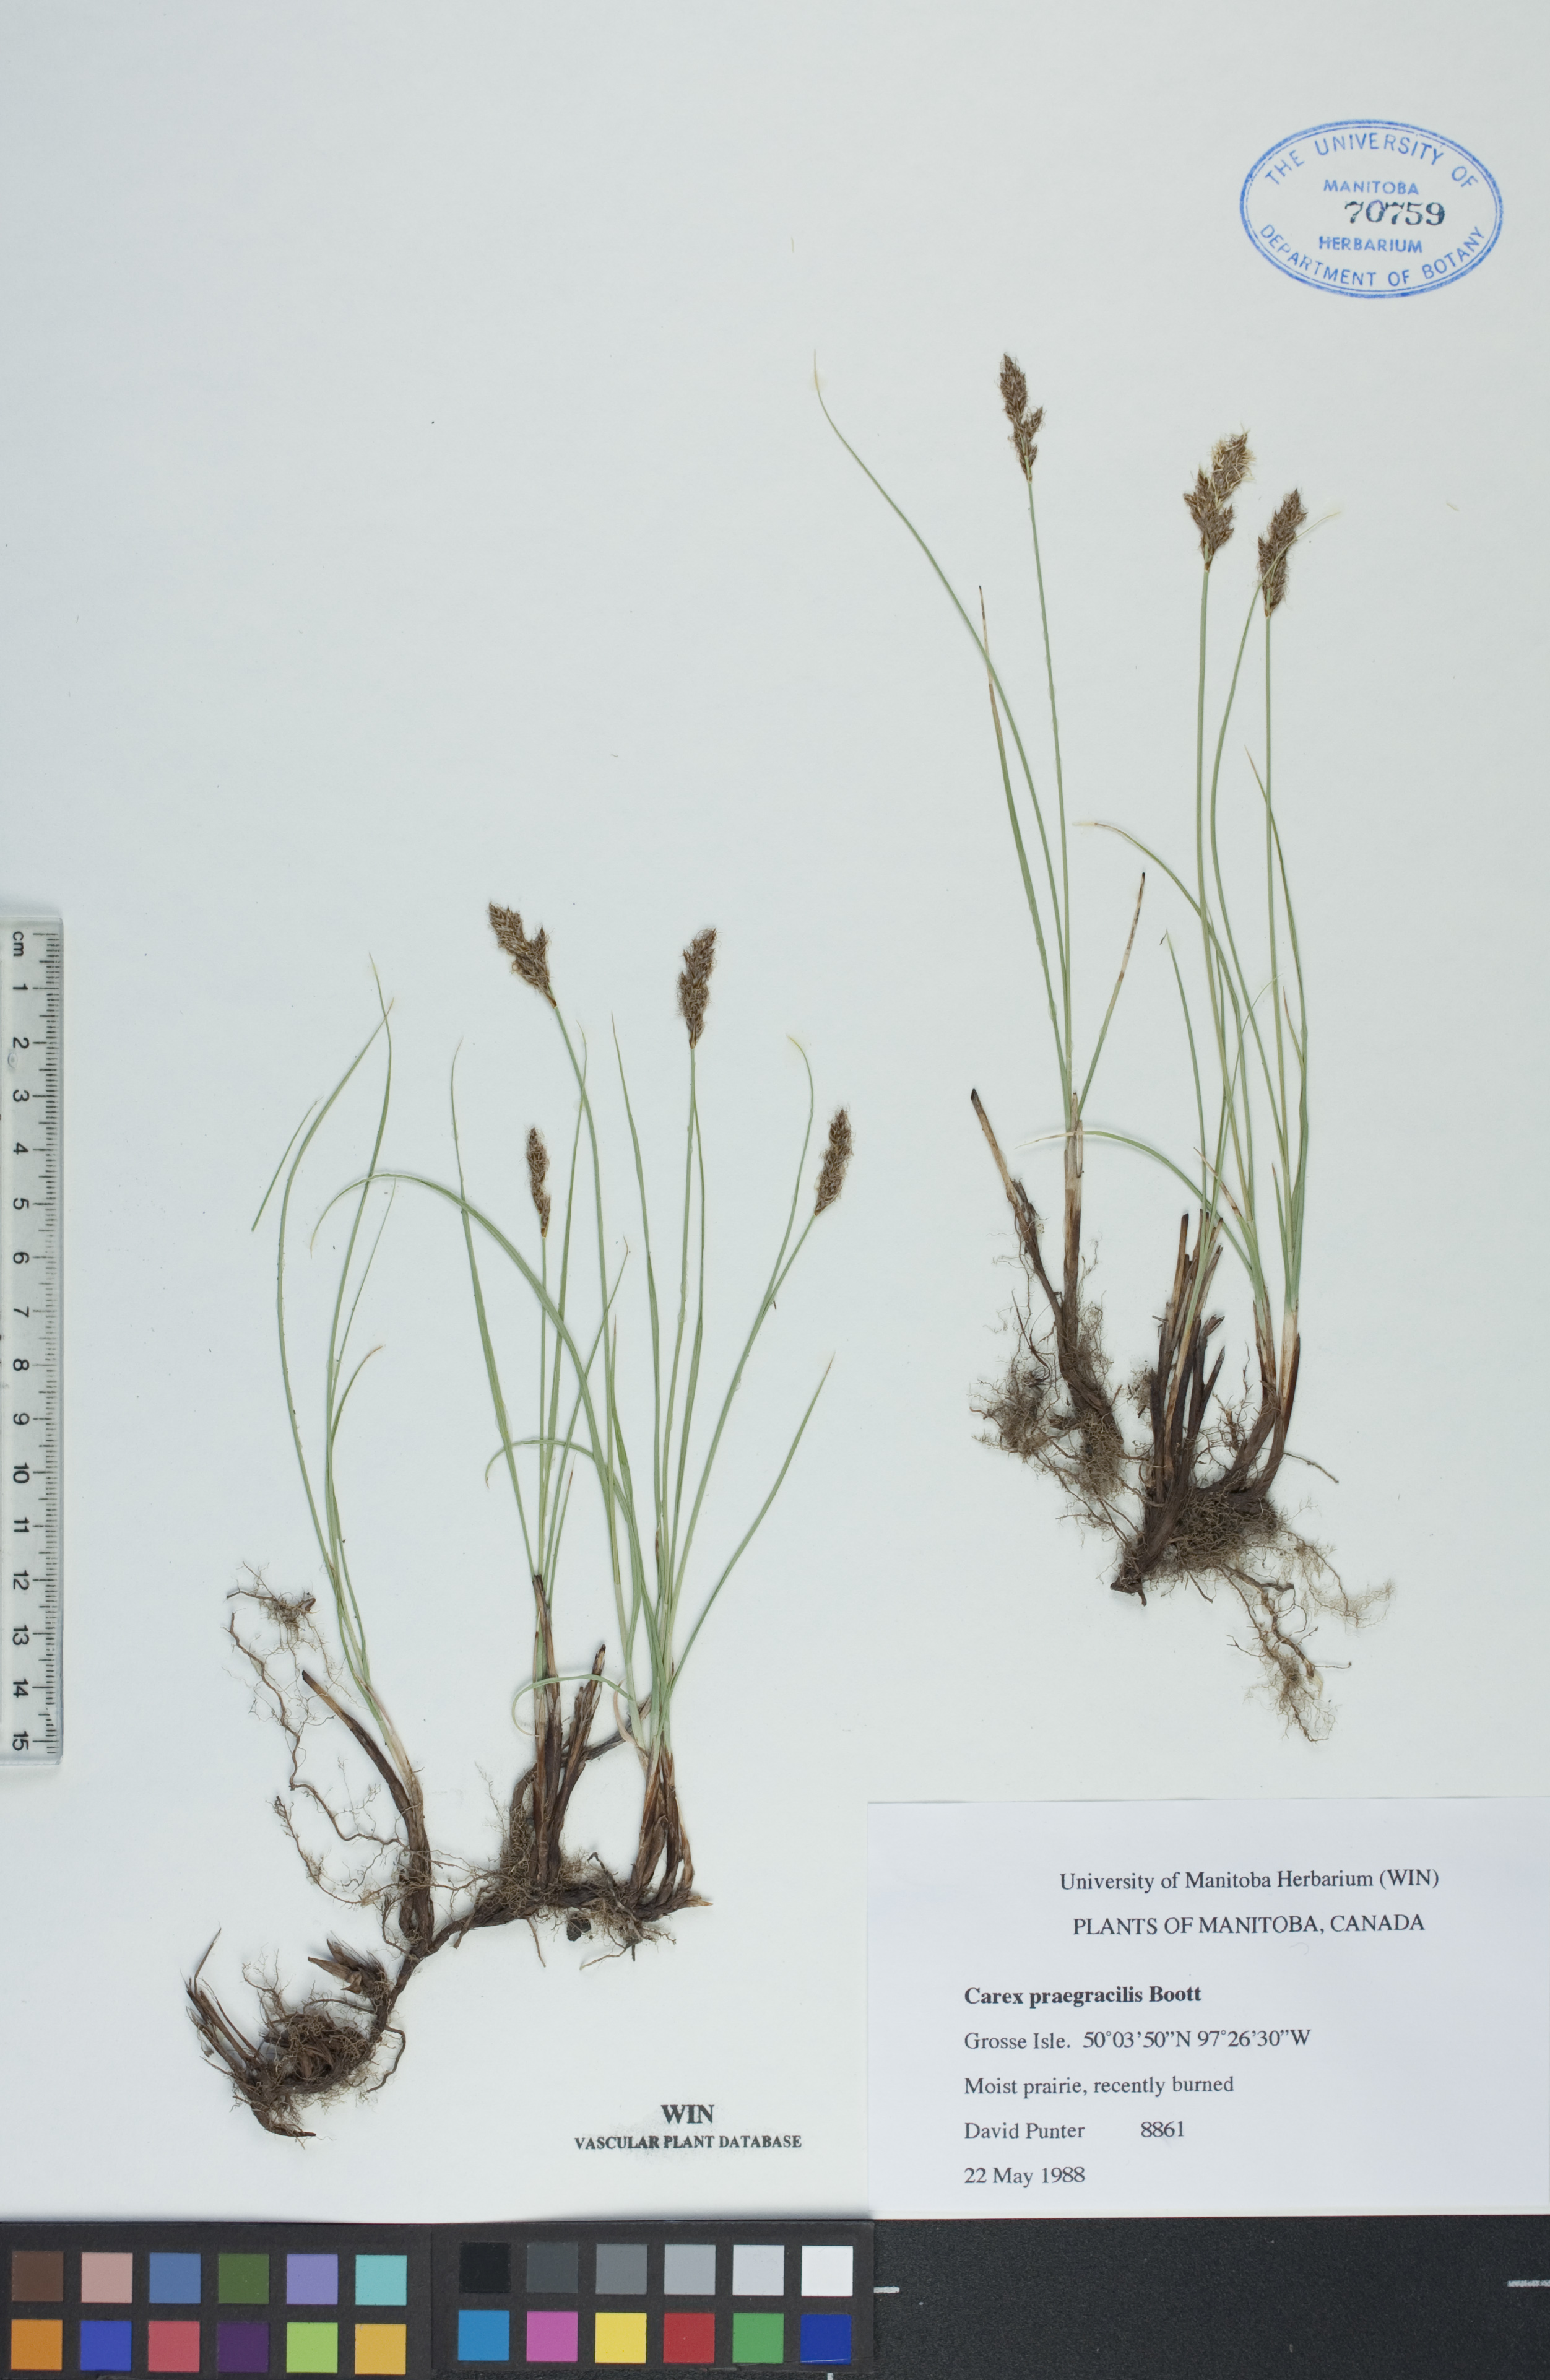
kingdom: Plantae
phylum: Tracheophyta
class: Liliopsida
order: Poales
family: Cyperaceae
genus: Carex
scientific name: Carex praegracilis
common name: Black creeper sedge
